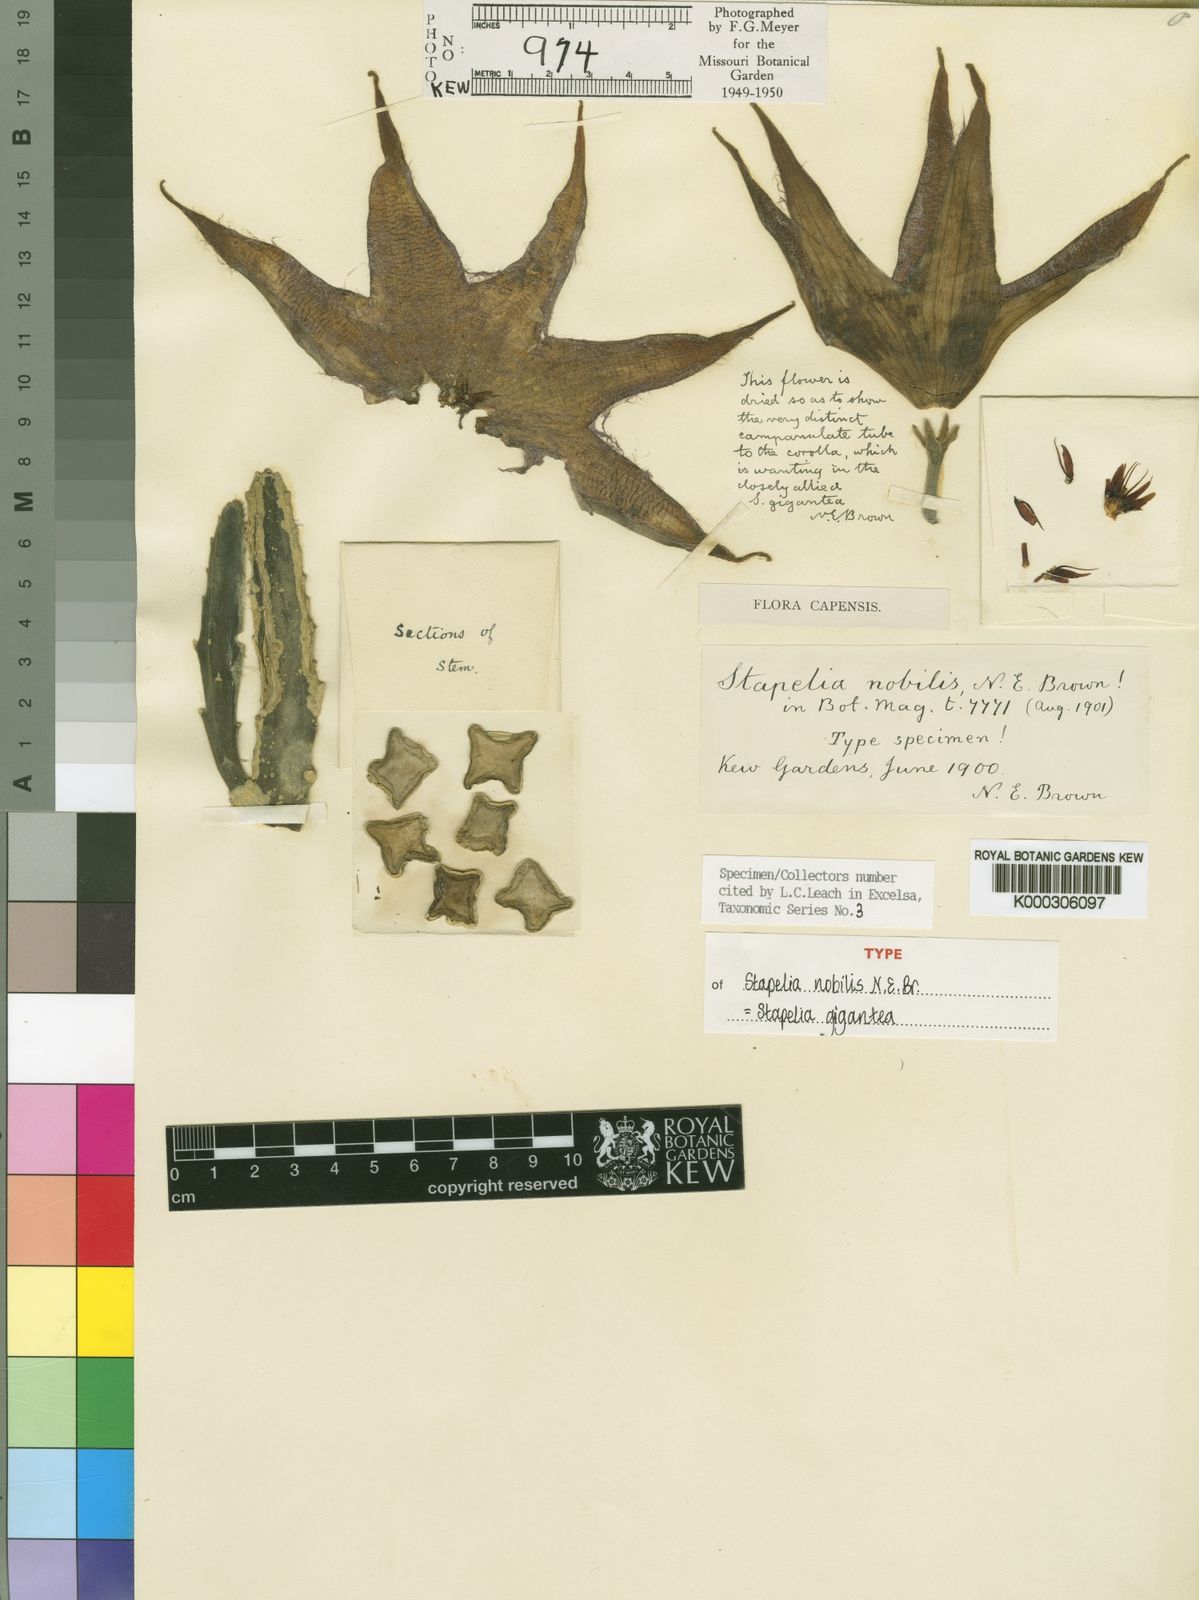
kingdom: Plantae
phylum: Tracheophyta
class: Magnoliopsida
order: Gentianales
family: Apocynaceae
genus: Ceropegia
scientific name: Ceropegia gigantea
